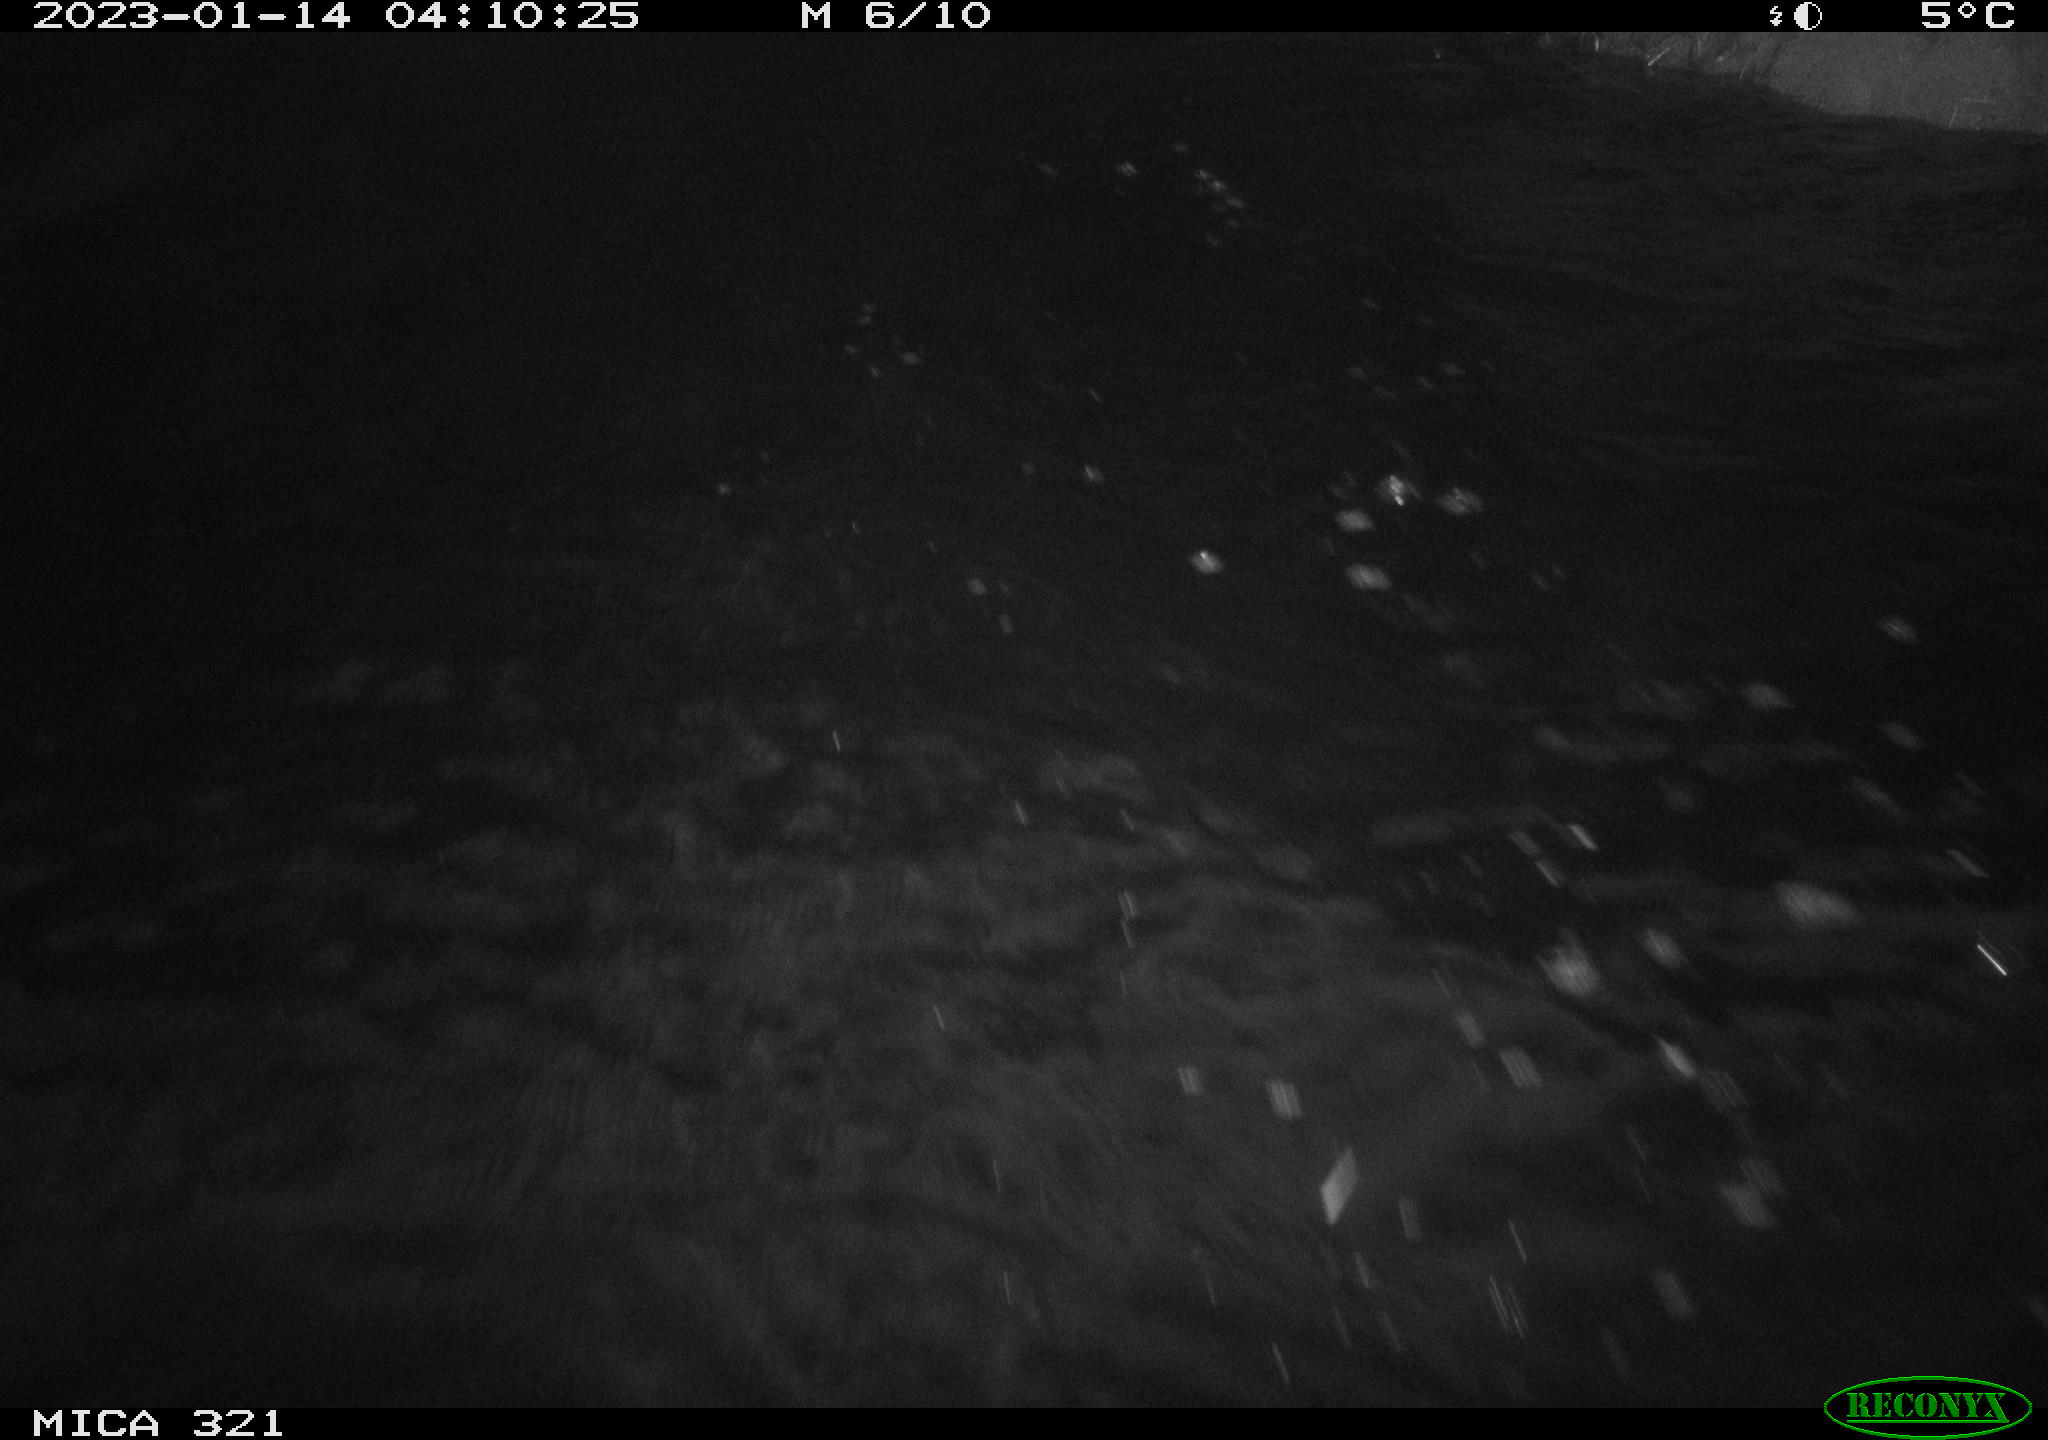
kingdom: Animalia
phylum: Chordata
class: Aves
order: Anseriformes
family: Anatidae
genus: Anas
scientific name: Anas
